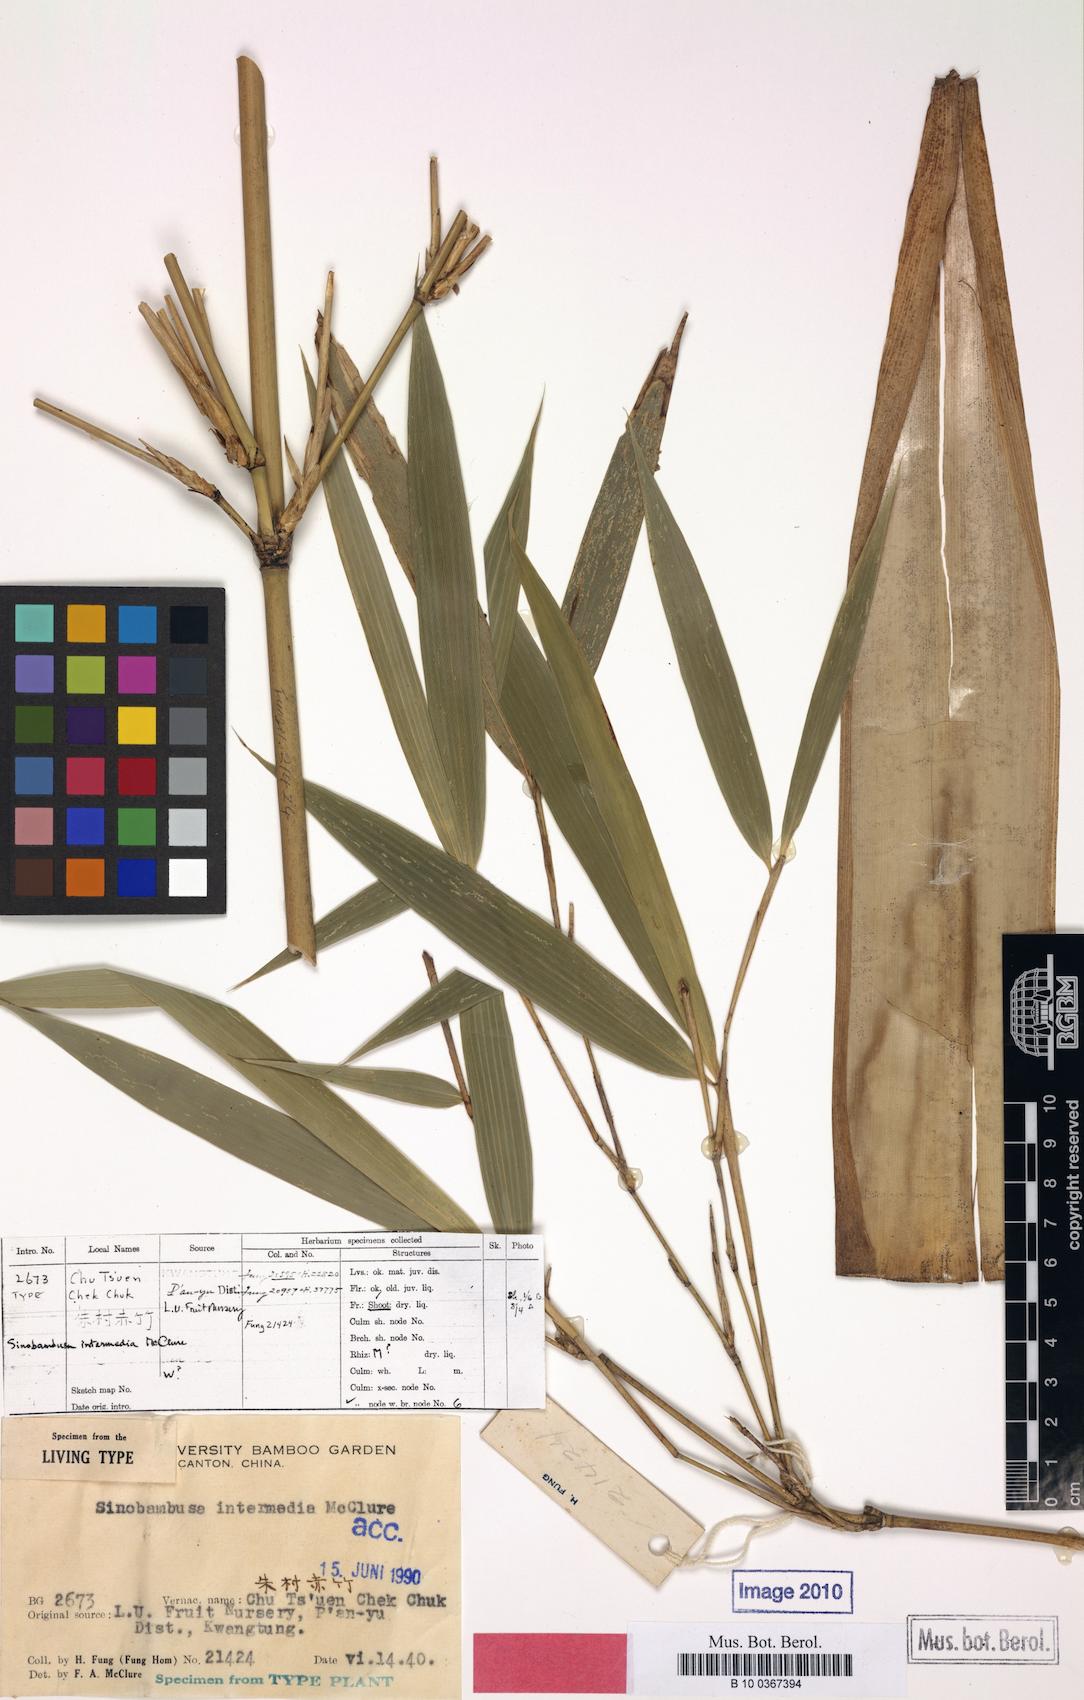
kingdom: Plantae
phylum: Tracheophyta
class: Liliopsida
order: Poales
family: Poaceae
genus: Sinobambusa
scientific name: Sinobambusa intermedia
